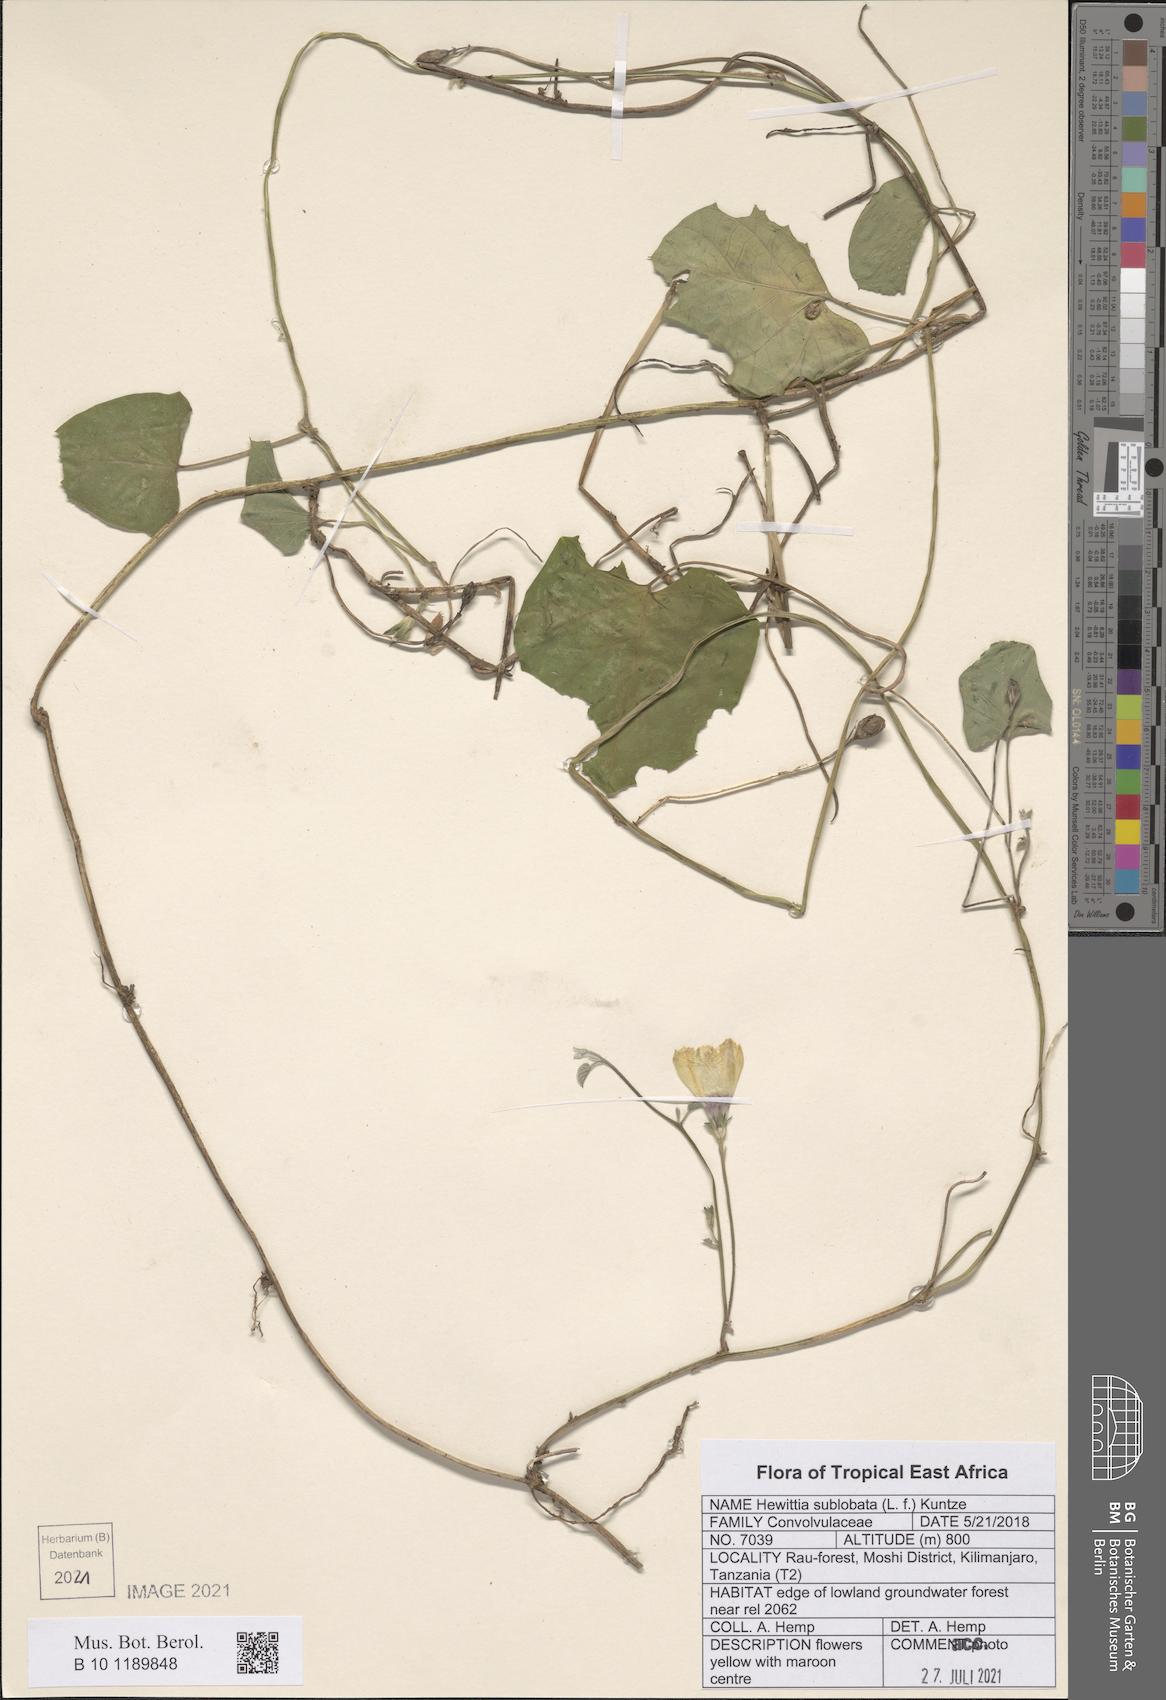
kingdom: Plantae
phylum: Tracheophyta
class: Magnoliopsida
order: Solanales
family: Convolvulaceae
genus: Hewittia
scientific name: Hewittia malabarica
